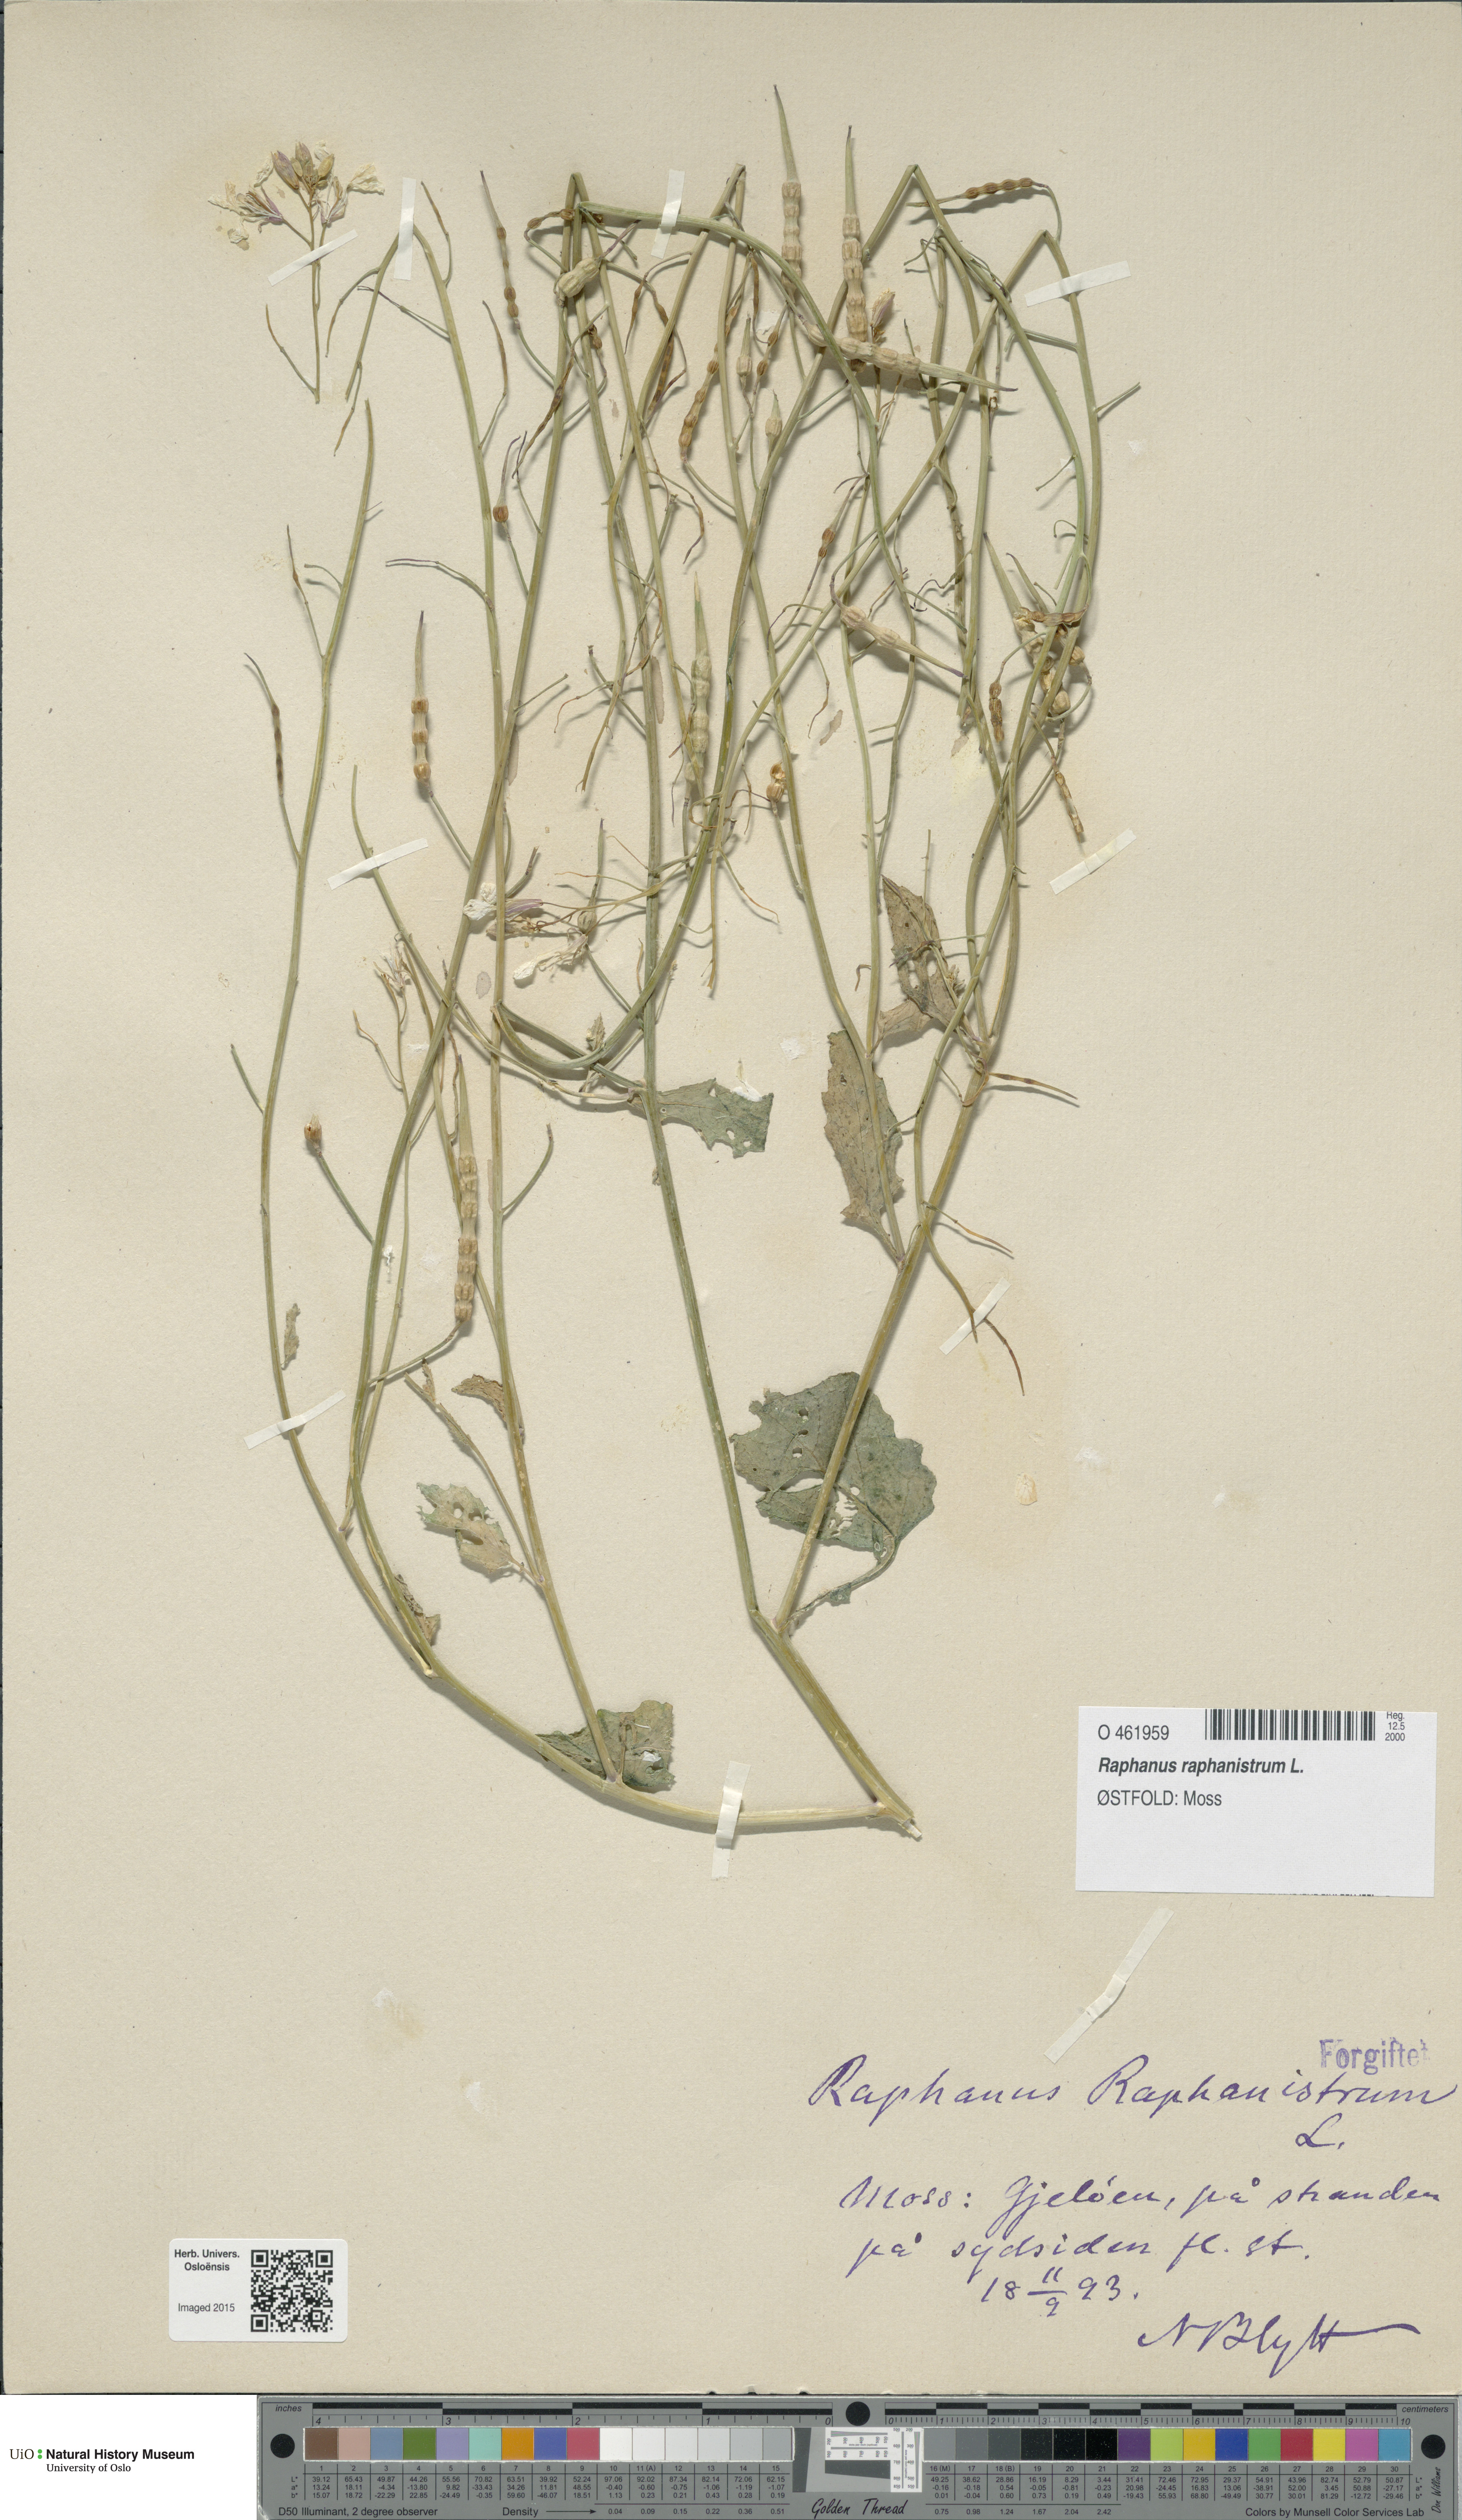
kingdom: Plantae
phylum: Tracheophyta
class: Magnoliopsida
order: Brassicales
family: Brassicaceae
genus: Raphanus
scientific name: Raphanus raphanistrum
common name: Wild radish
